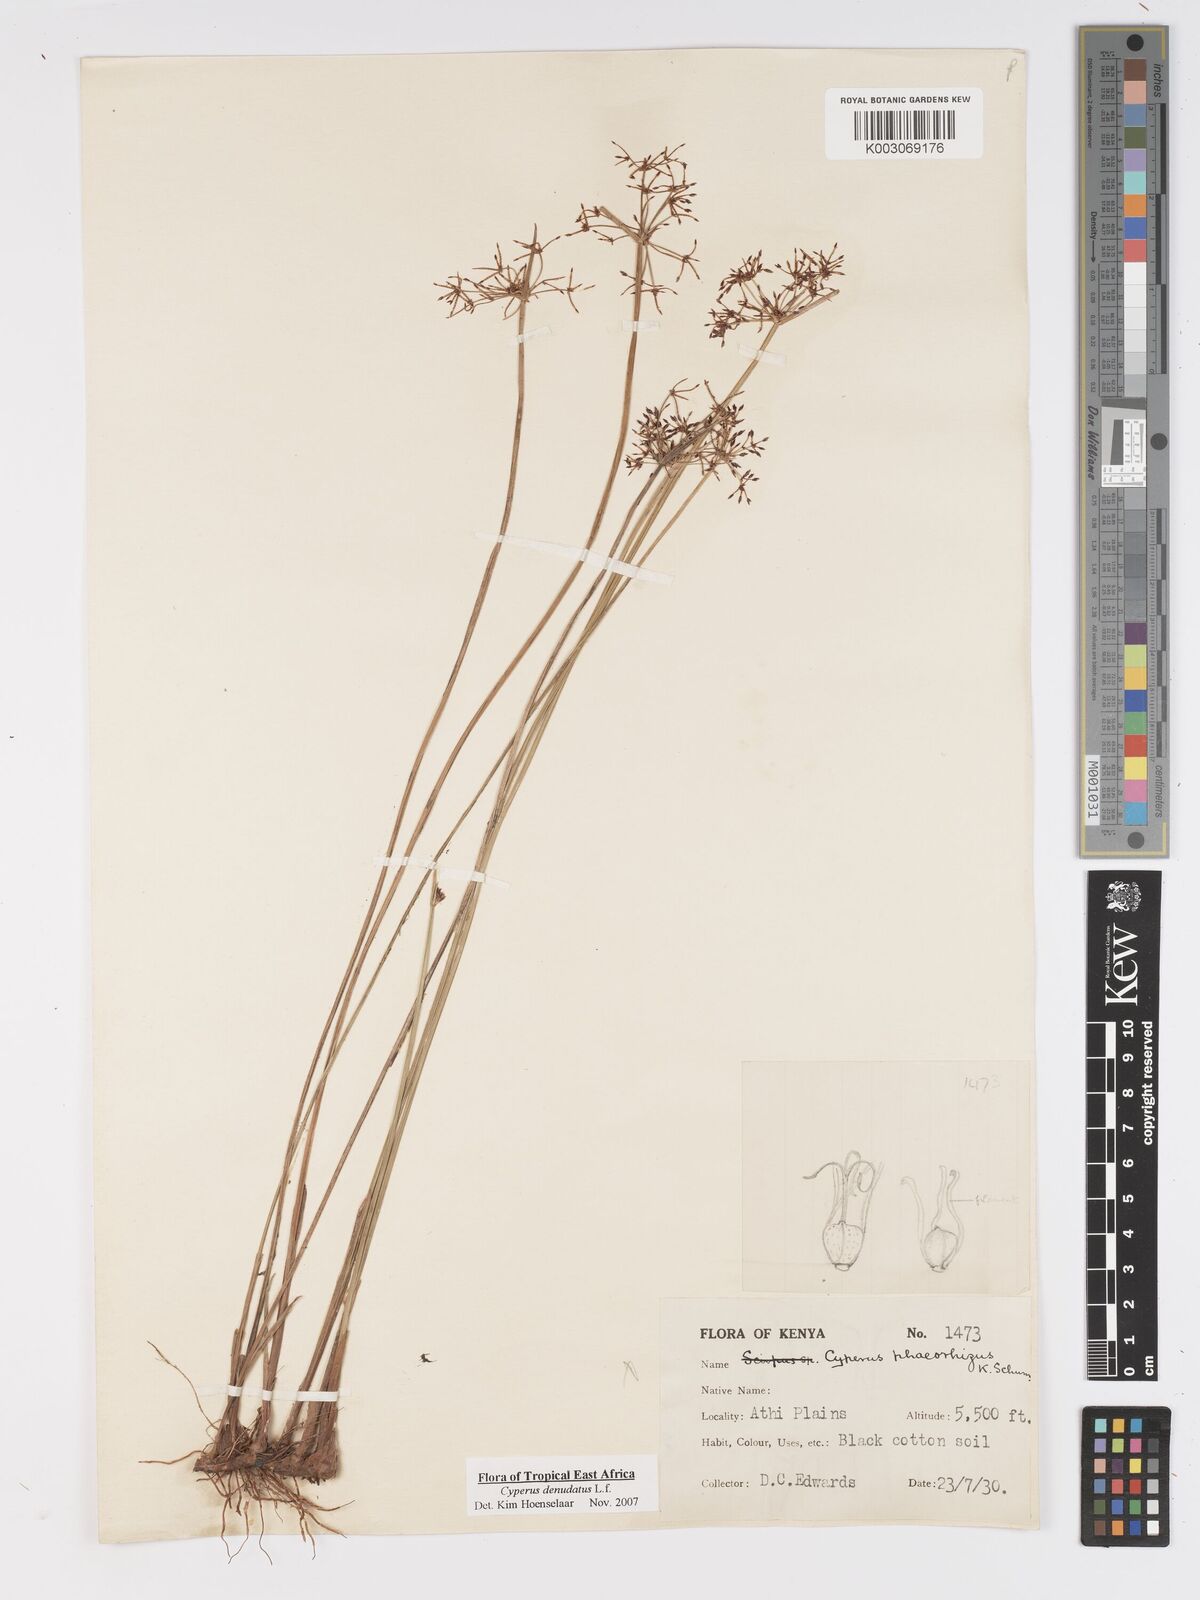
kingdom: Plantae
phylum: Tracheophyta
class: Liliopsida
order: Poales
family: Cyperaceae
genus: Cyperus
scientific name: Cyperus platycaulis
